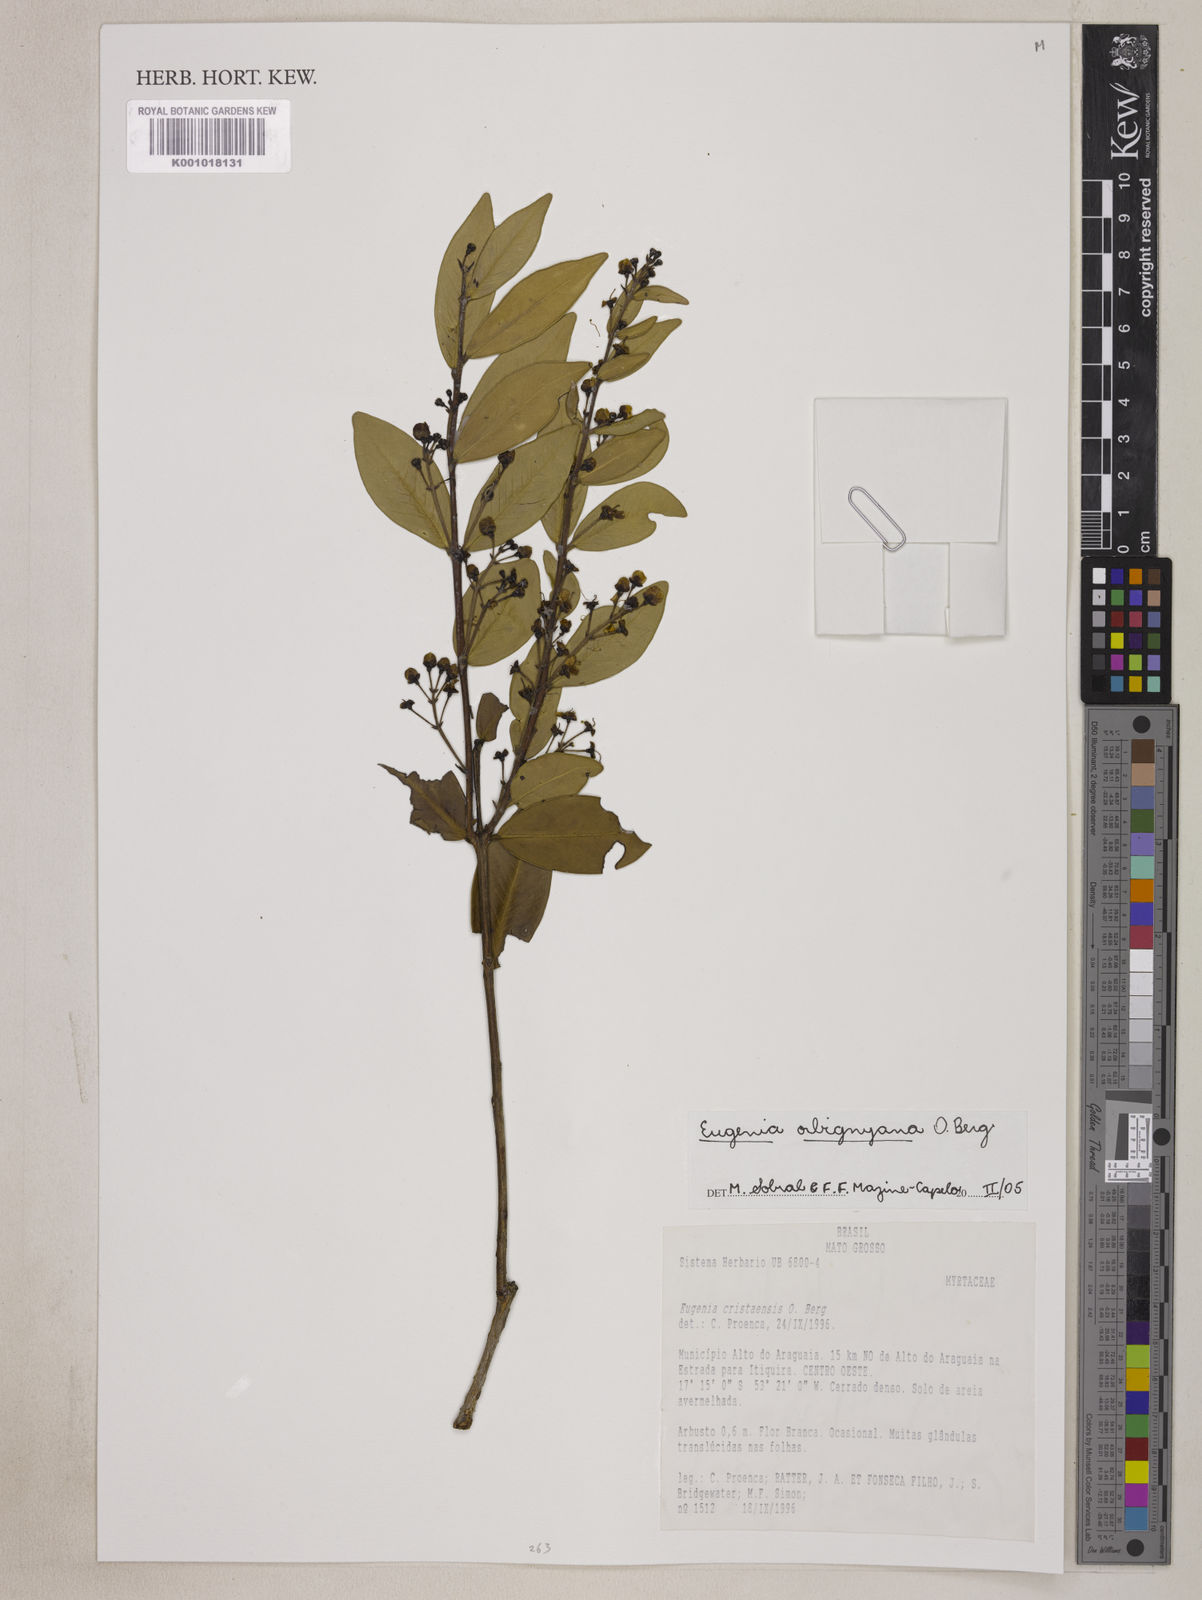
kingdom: Plantae
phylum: Tracheophyta
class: Magnoliopsida
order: Myrtales
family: Myrtaceae
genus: Eugenia
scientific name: Eugenia orbignyana
